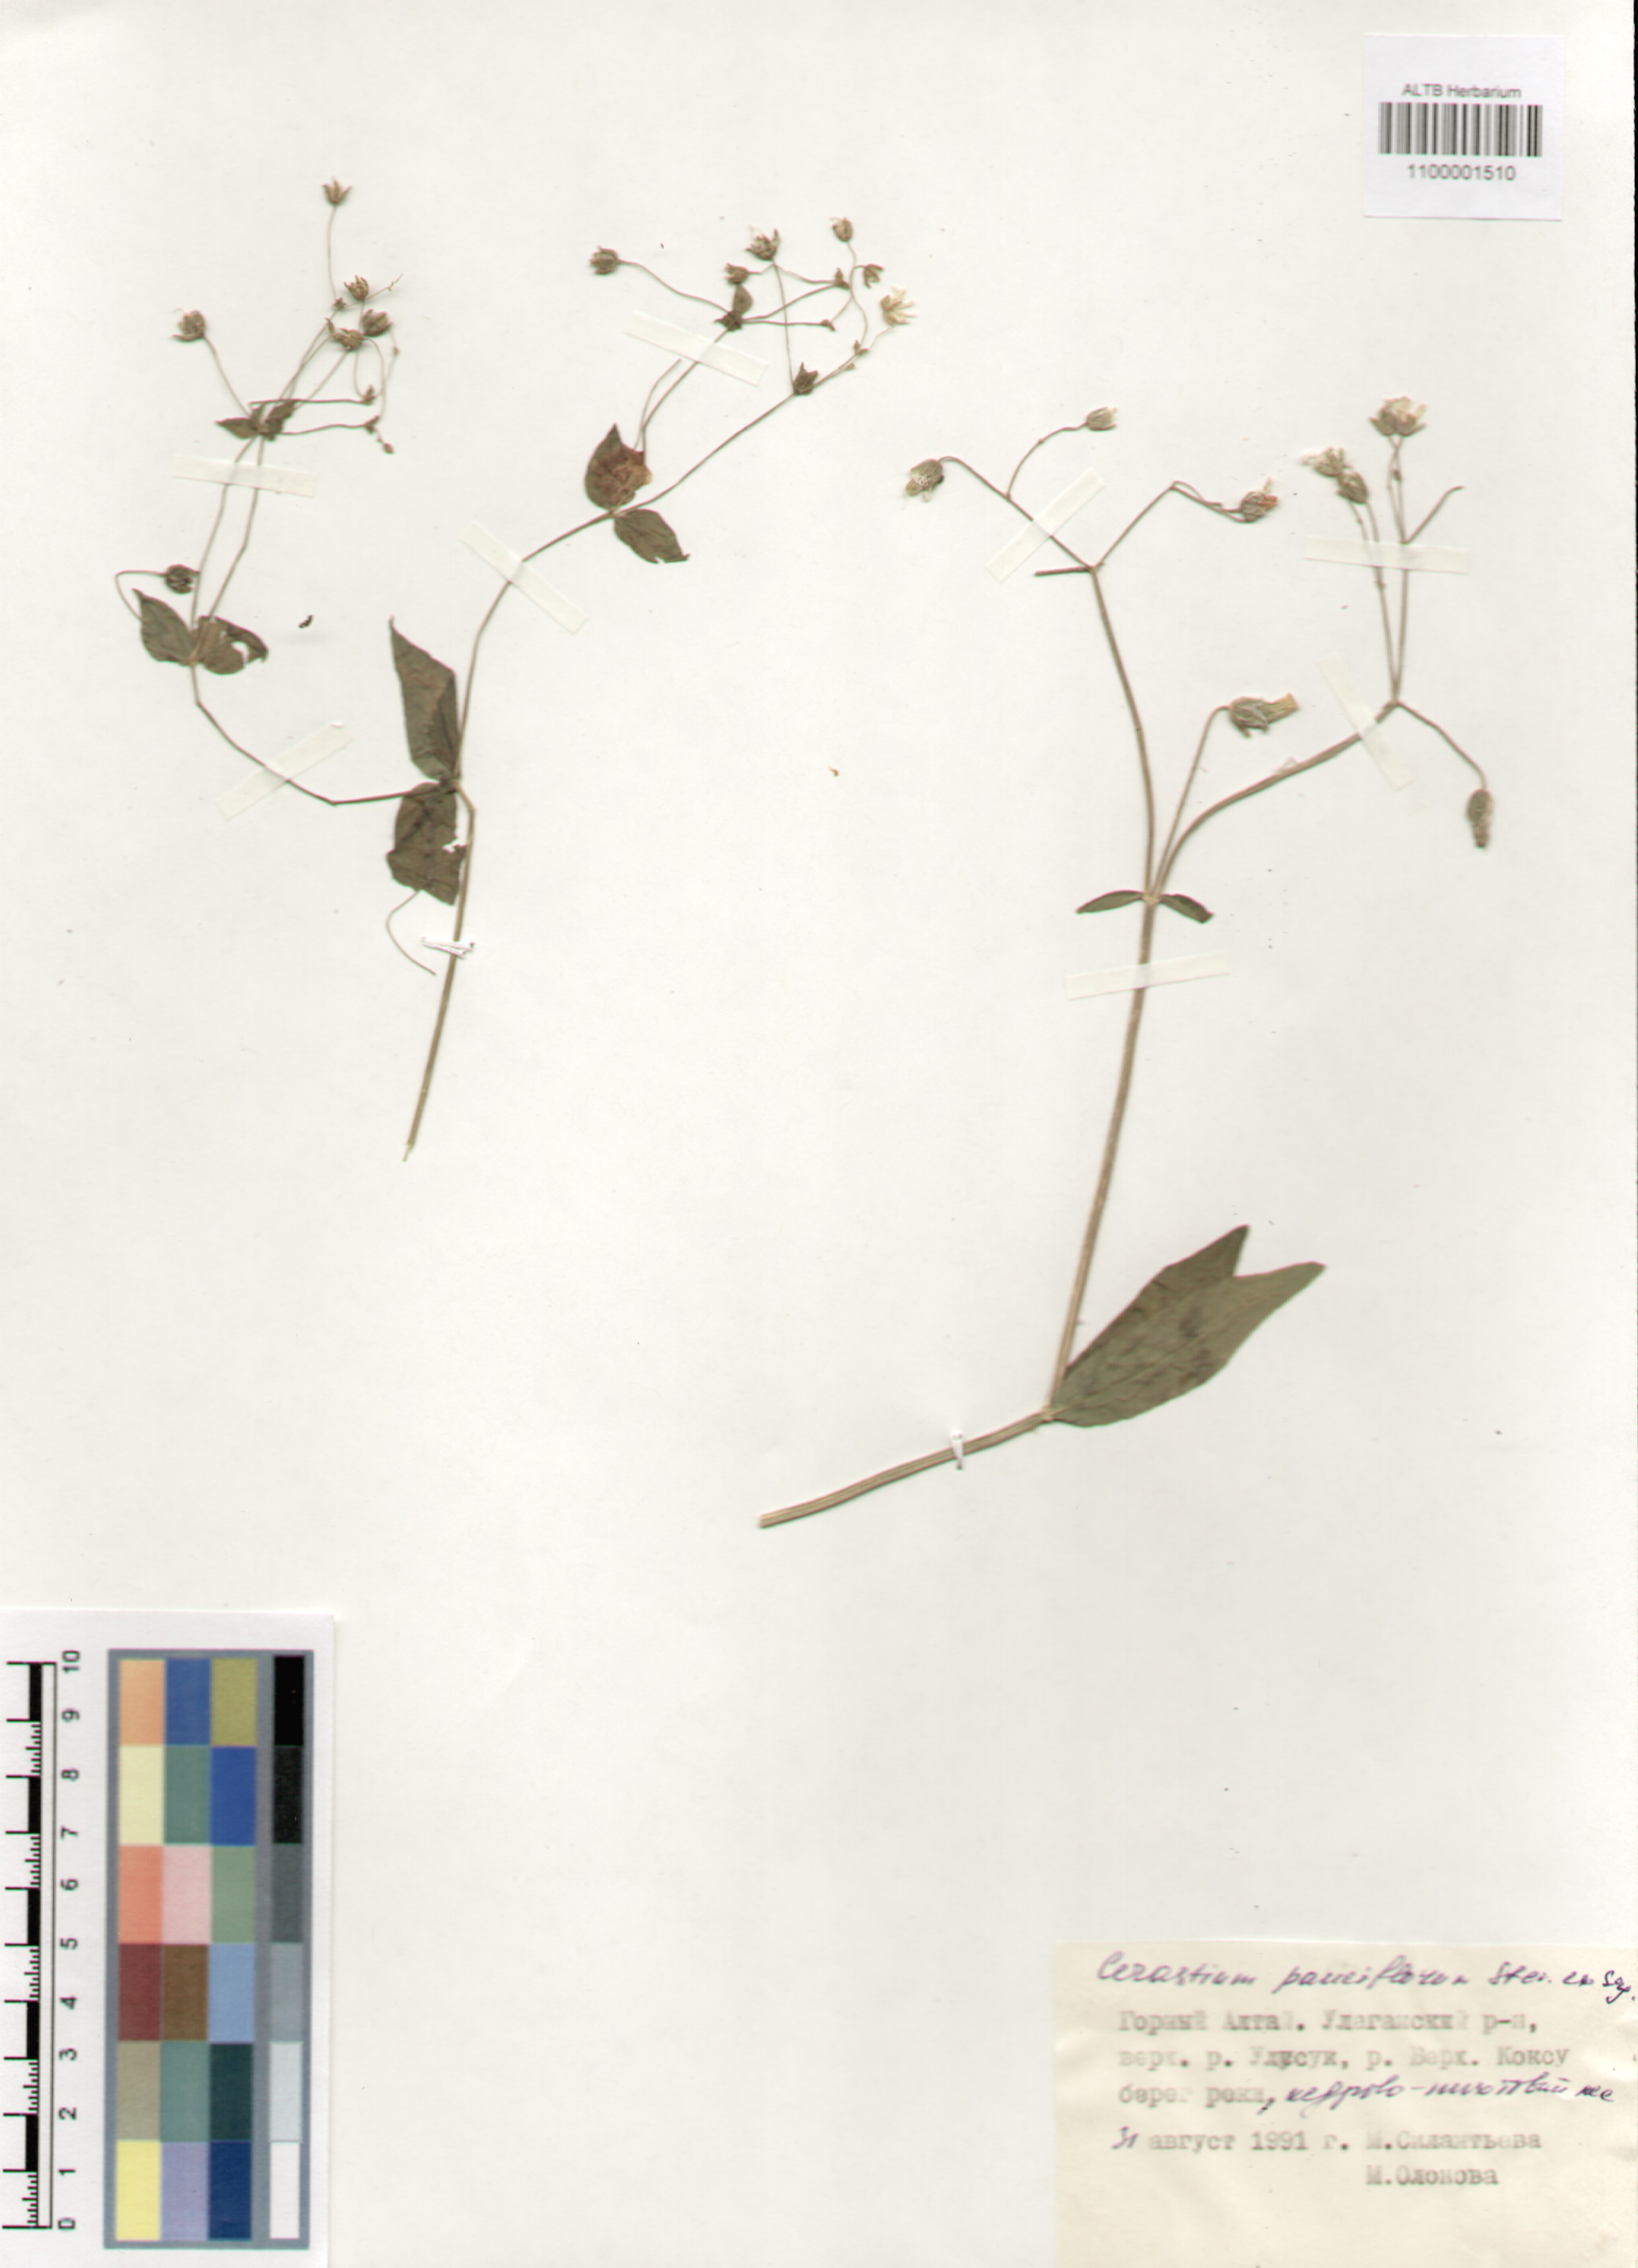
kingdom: Plantae
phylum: Tracheophyta
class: Magnoliopsida
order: Caryophyllales
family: Caryophyllaceae
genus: Cerastium
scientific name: Cerastium pauciflorum
